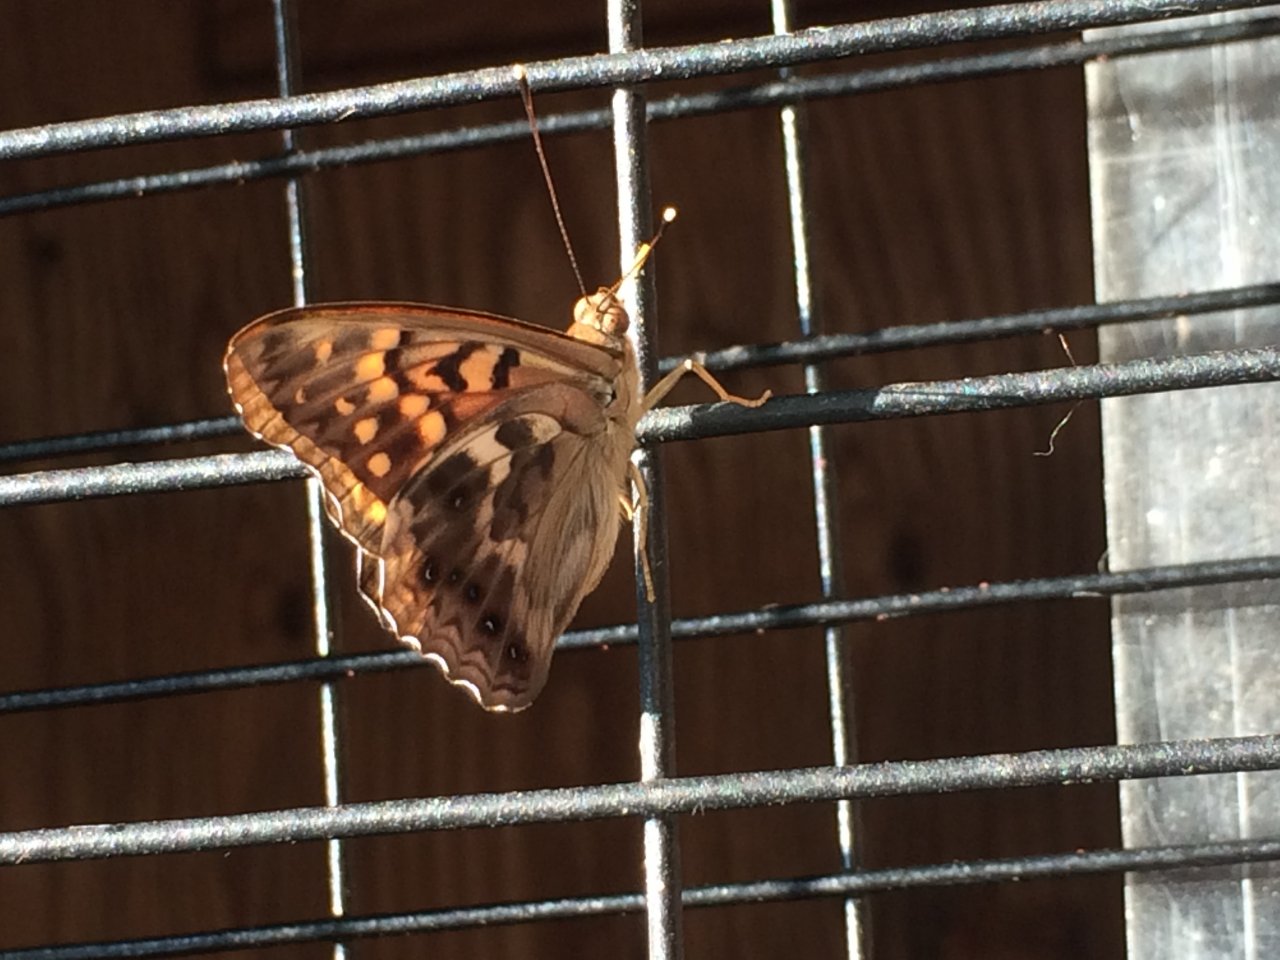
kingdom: Animalia
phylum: Arthropoda
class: Insecta
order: Lepidoptera
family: Nymphalidae
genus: Asterocampa
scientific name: Asterocampa clyton
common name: Tawny Emperor
